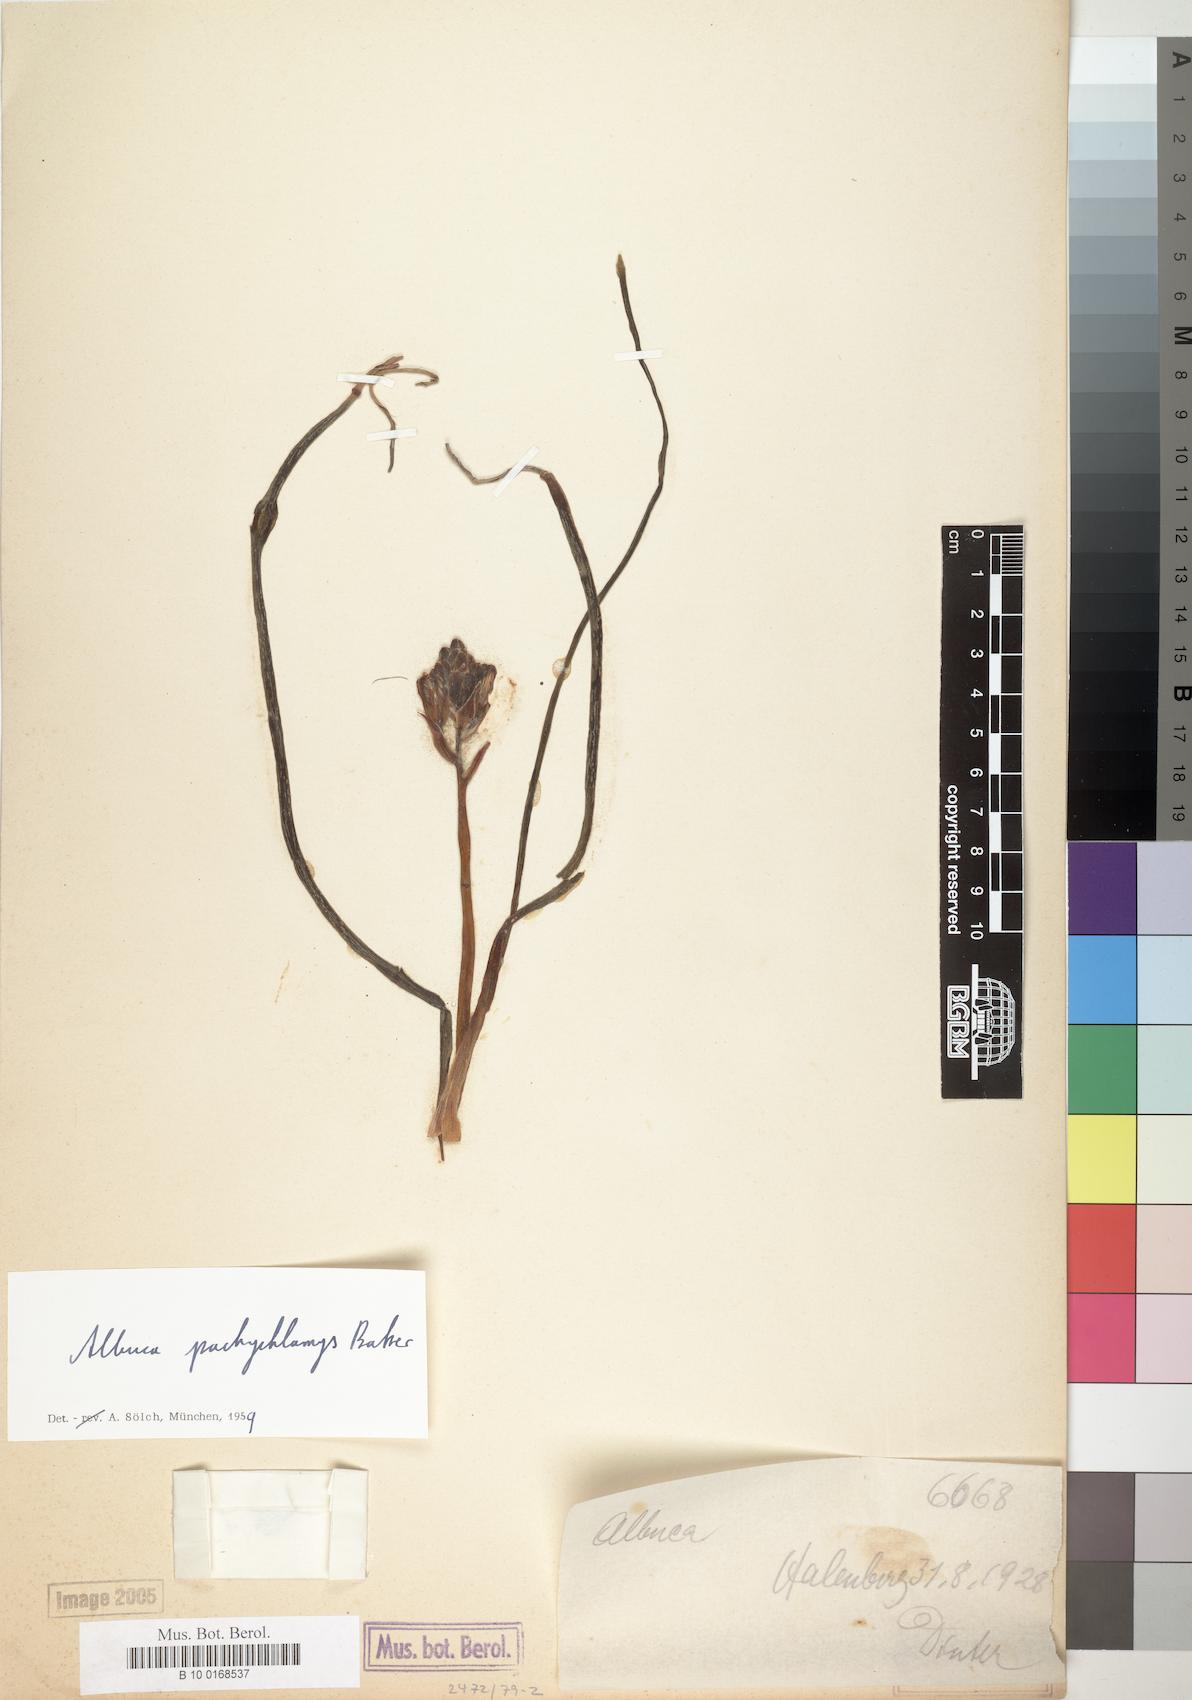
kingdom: Plantae
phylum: Tracheophyta
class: Liliopsida
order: Asparagales
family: Asparagaceae
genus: Albuca
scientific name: Albuca setosa
